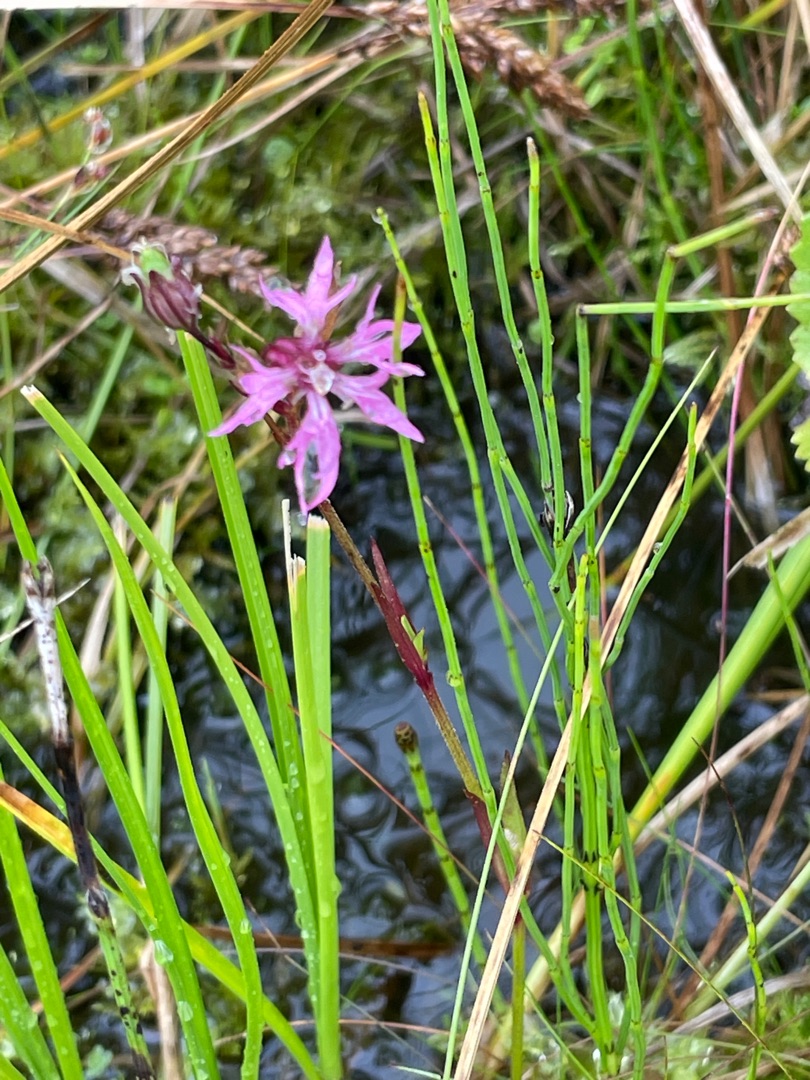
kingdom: Plantae
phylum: Tracheophyta
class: Magnoliopsida
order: Caryophyllales
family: Caryophyllaceae
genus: Silene
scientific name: Silene flos-cuculi
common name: Trævlekrone
